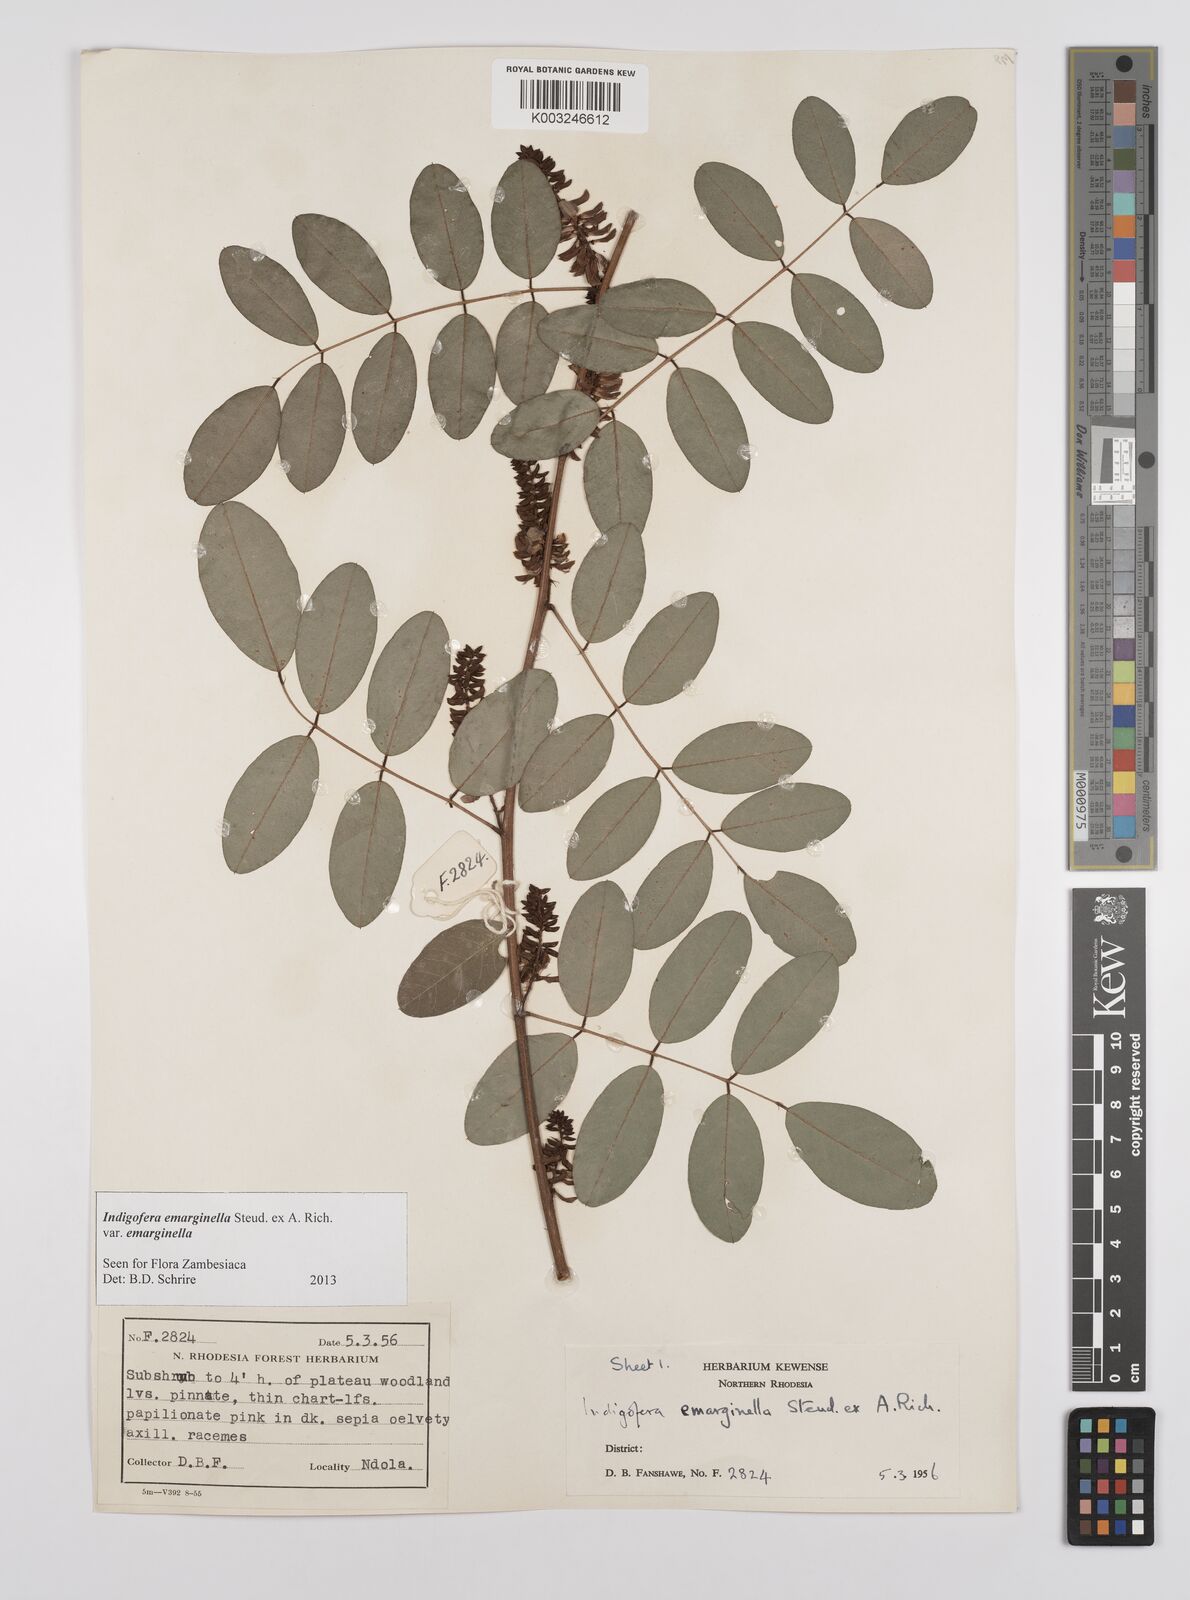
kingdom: Plantae
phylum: Tracheophyta
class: Magnoliopsida
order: Fabales
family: Fabaceae
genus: Indigofera
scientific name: Indigofera emarginella
